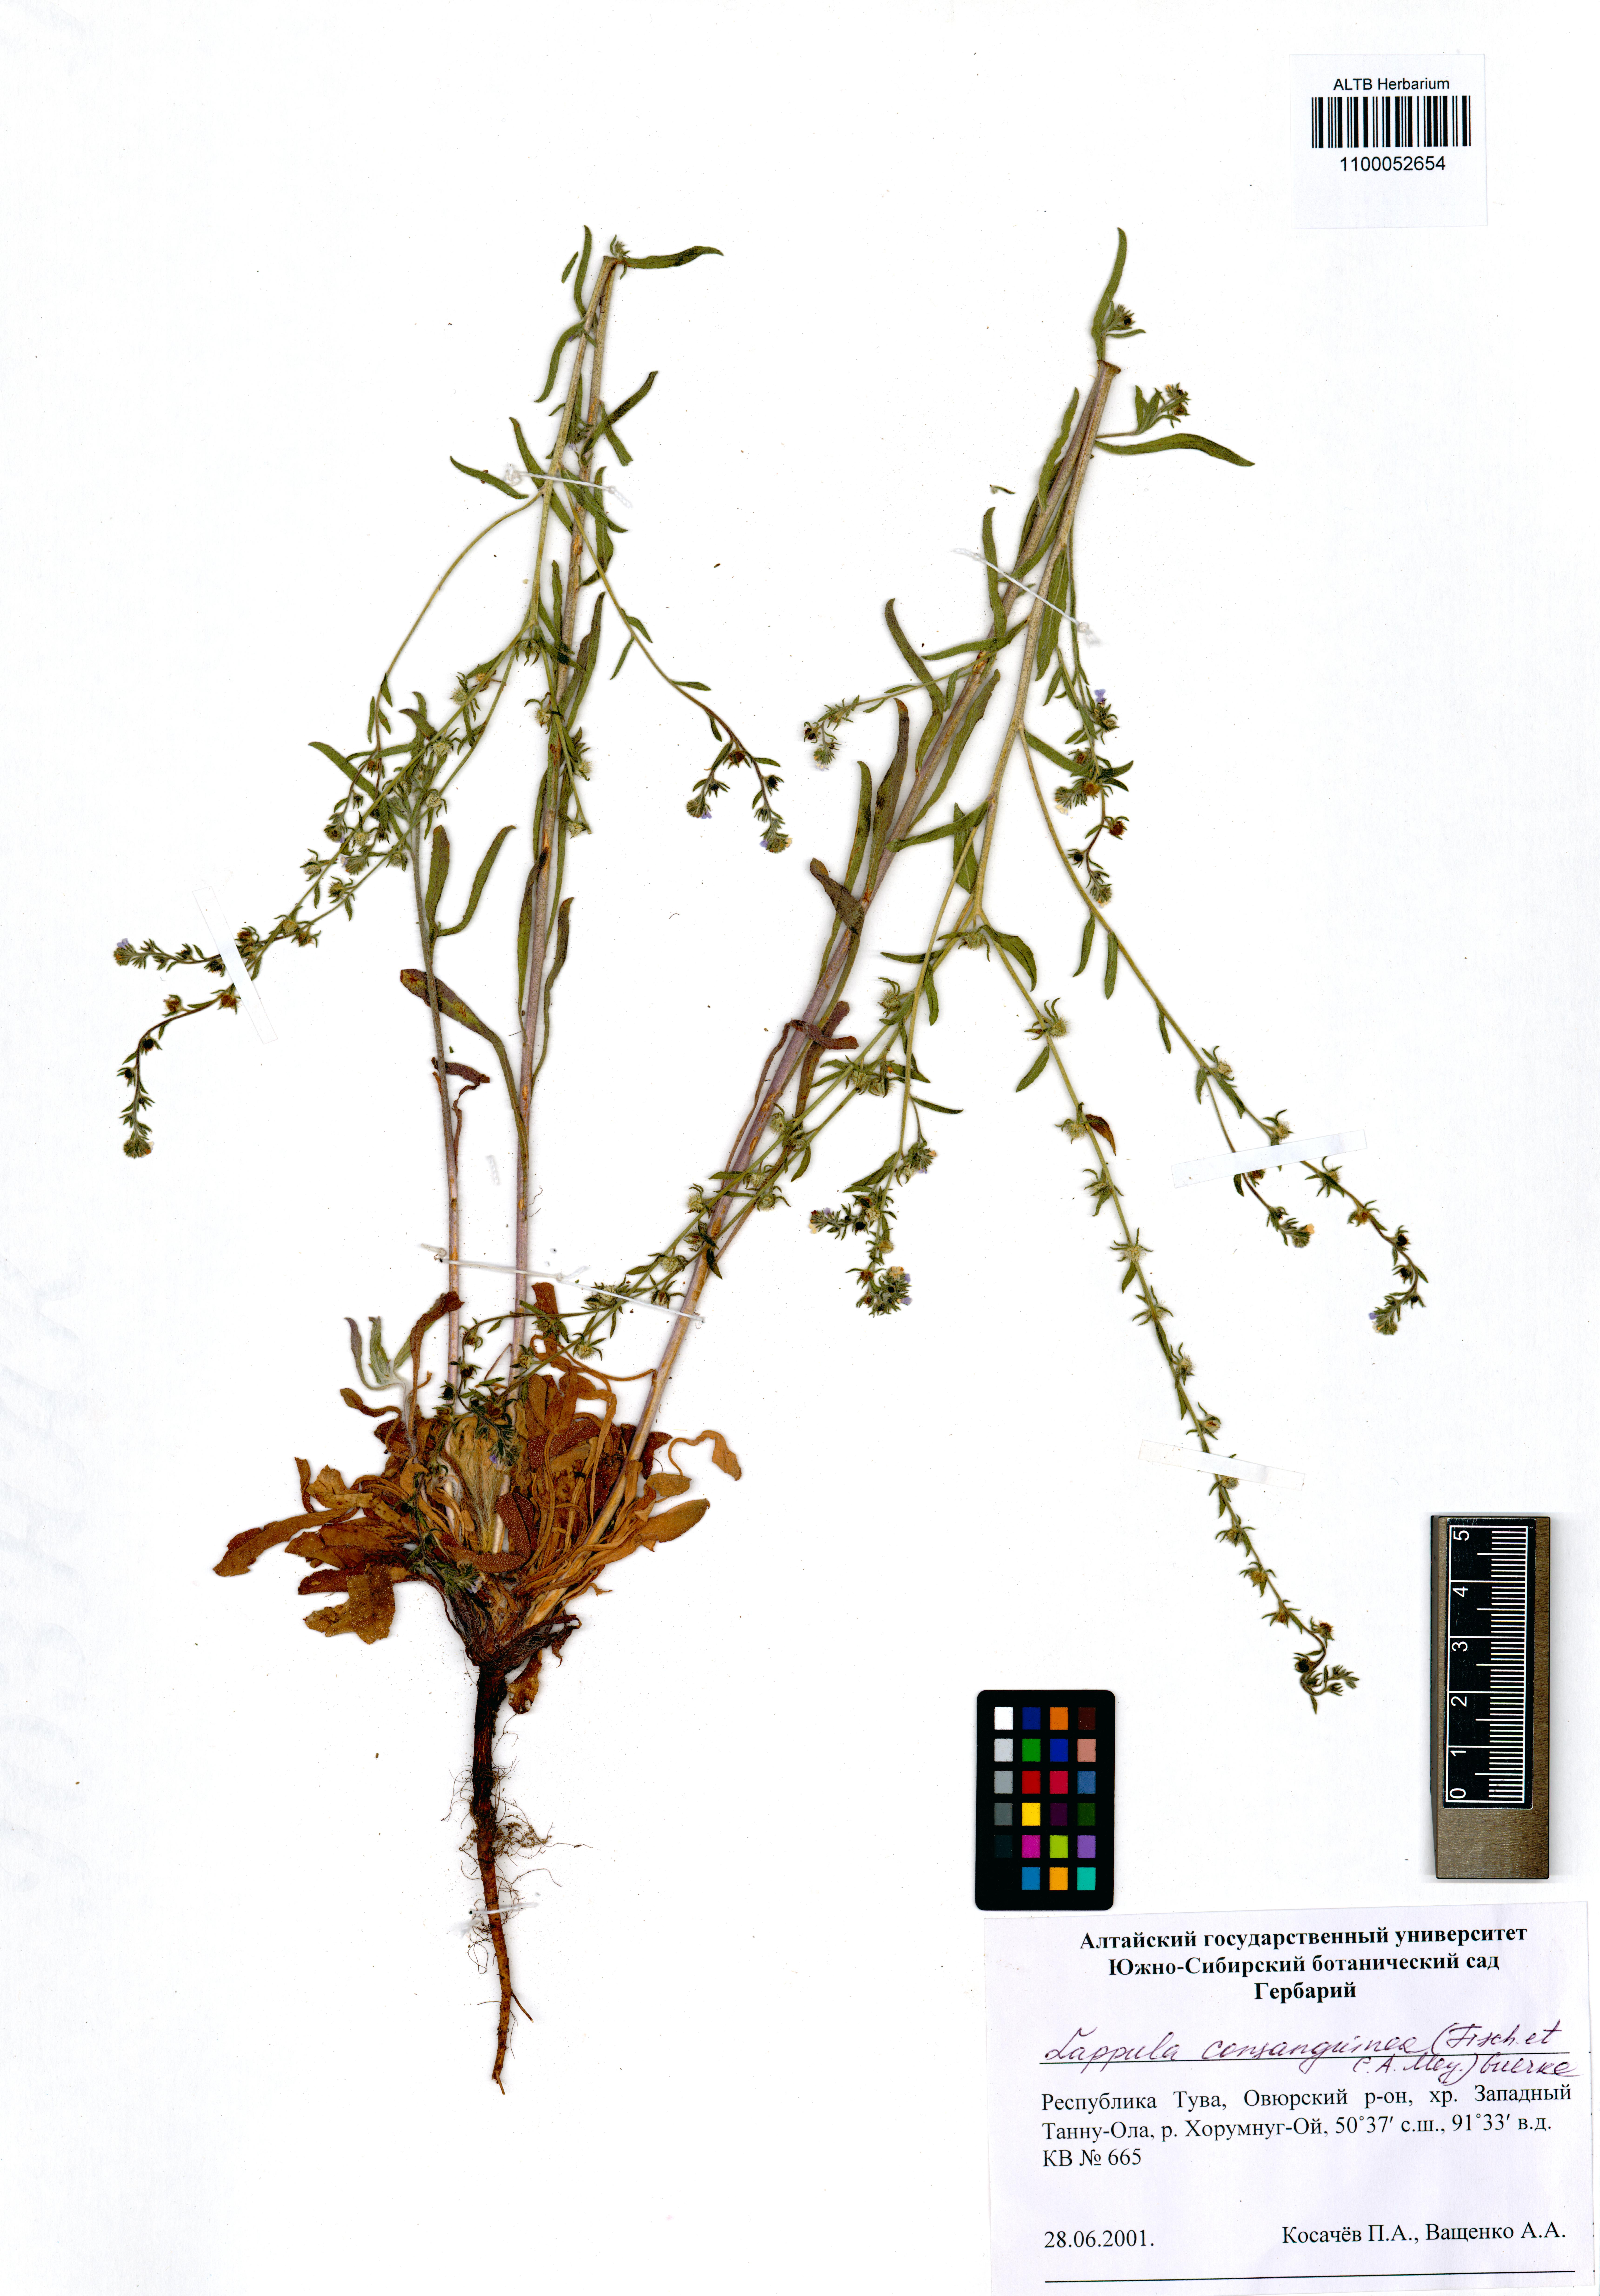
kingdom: Plantae
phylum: Tracheophyta
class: Magnoliopsida
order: Boraginales
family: Boraginaceae
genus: Lappula
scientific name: Lappula squarrosa
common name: European stickseed
